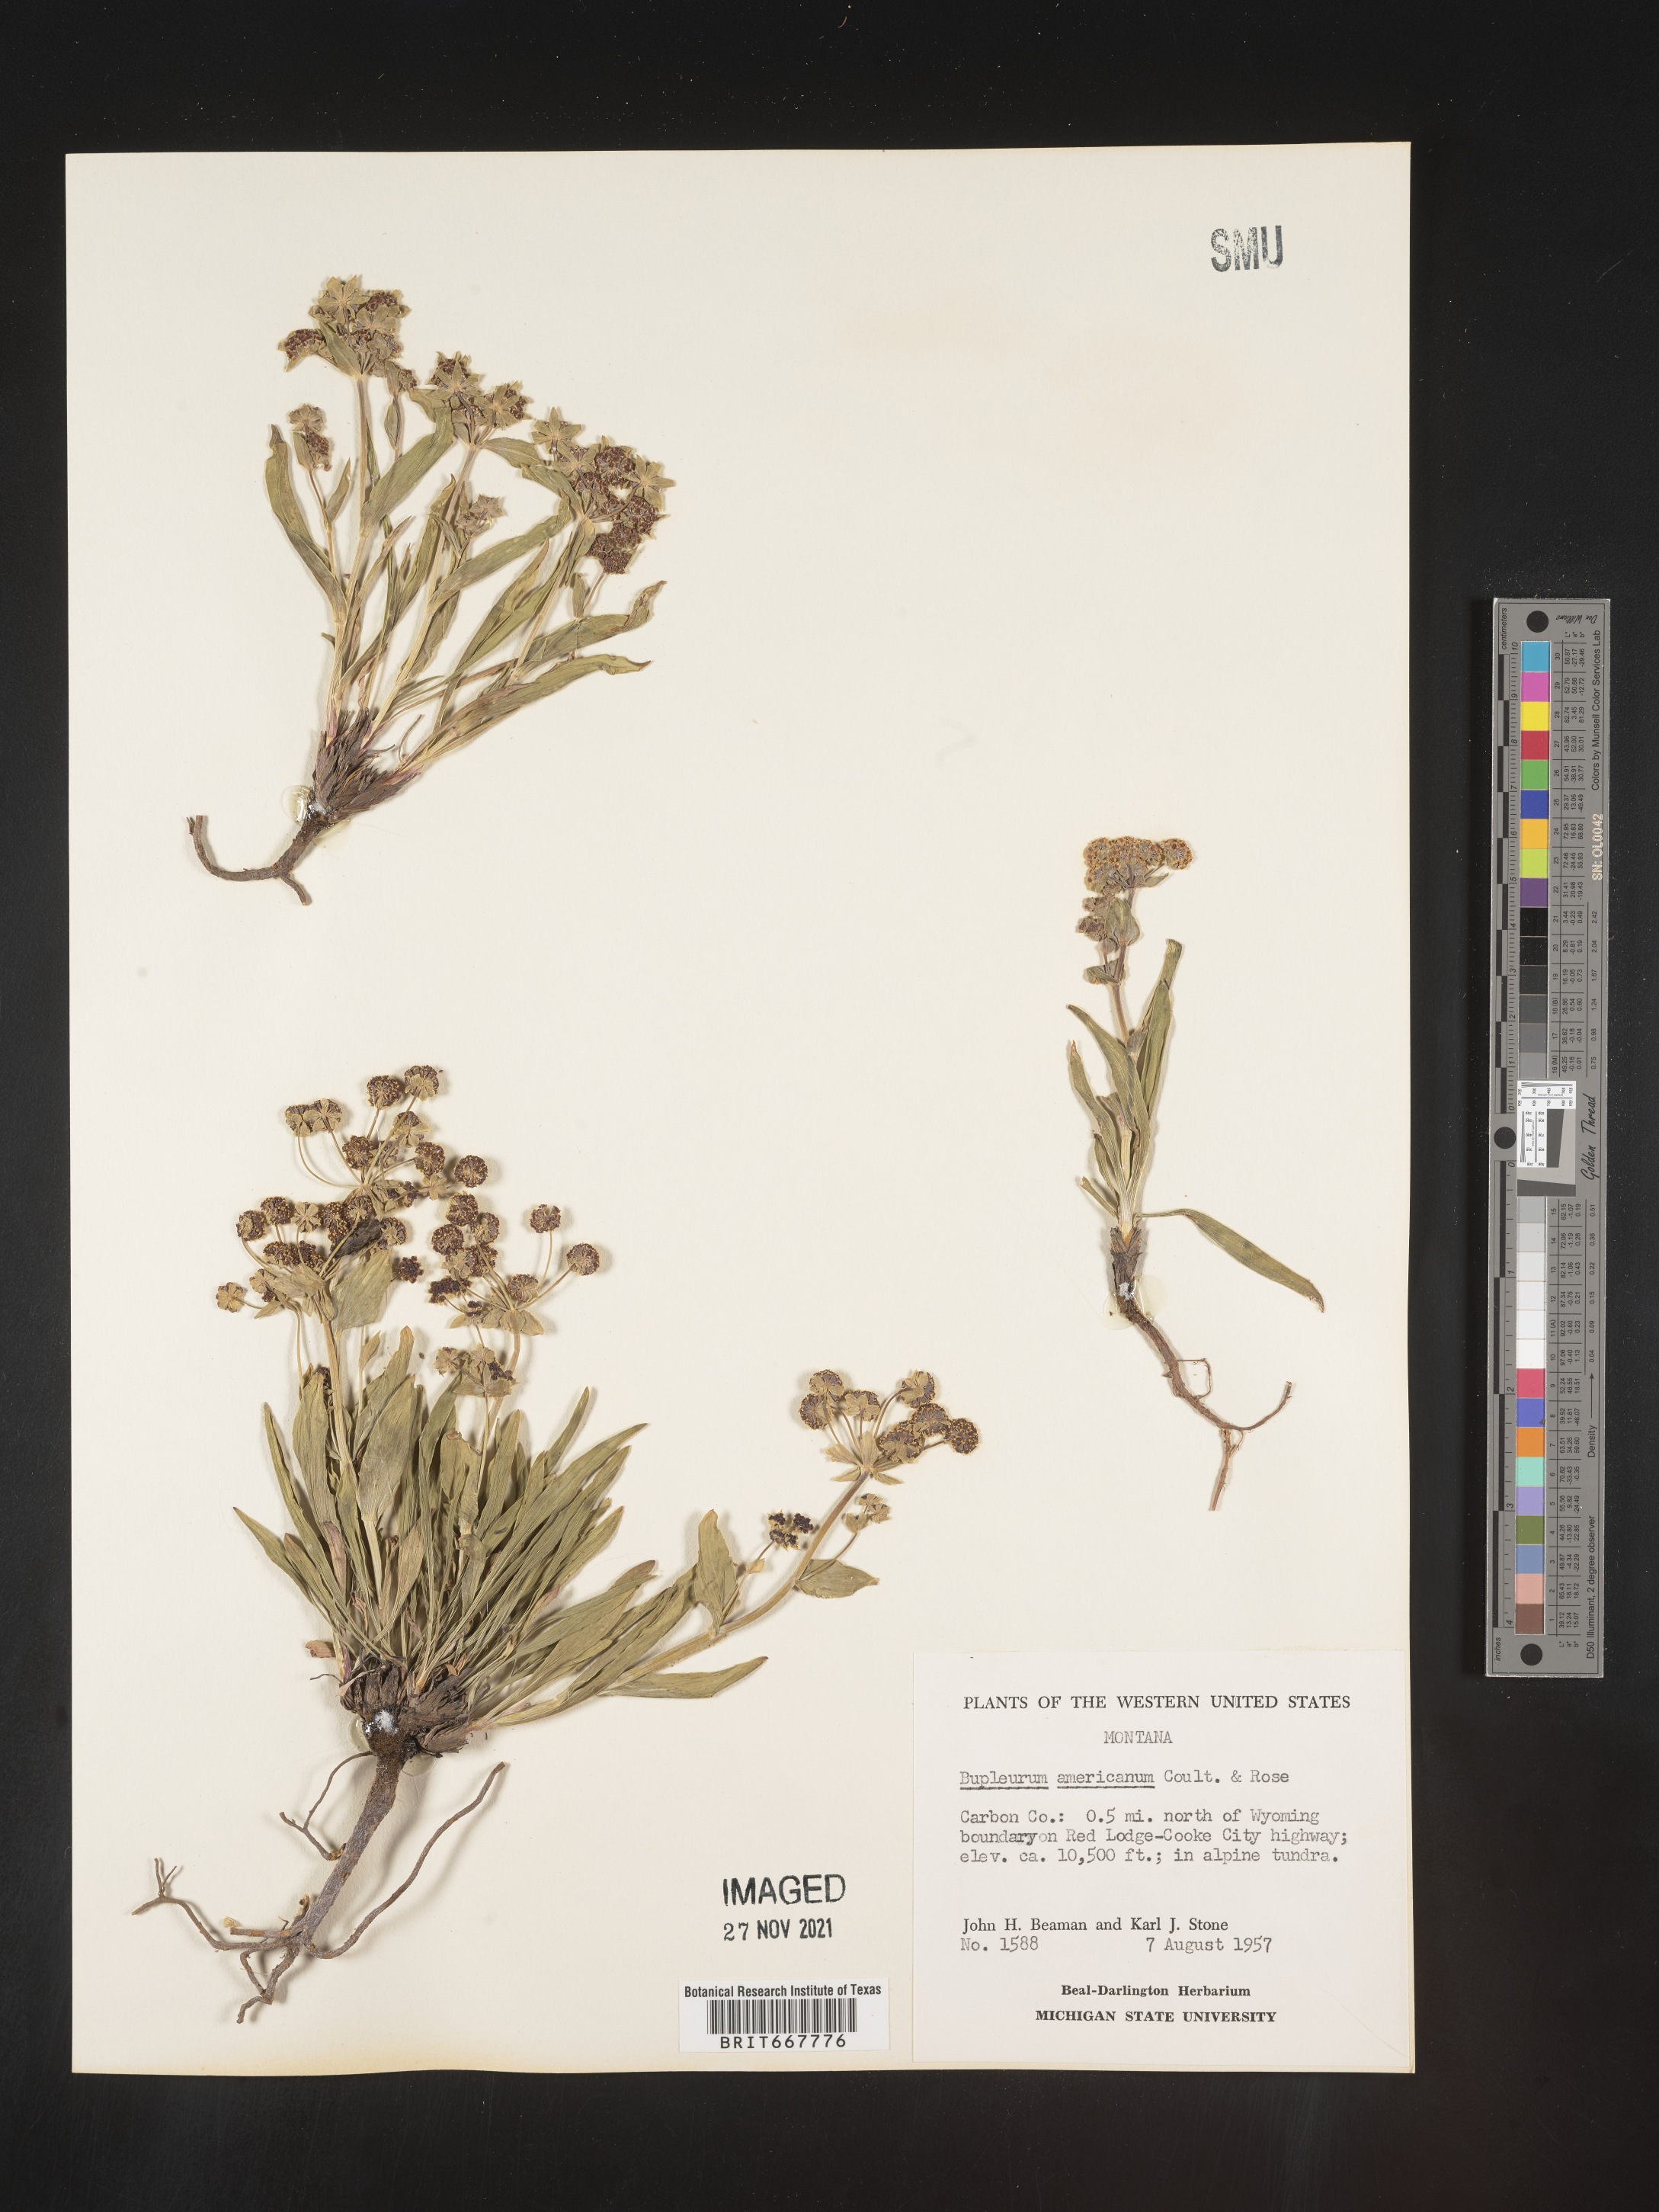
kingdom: Plantae
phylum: Tracheophyta
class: Magnoliopsida
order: Apiales
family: Apiaceae
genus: Bupleurum
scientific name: Bupleurum
